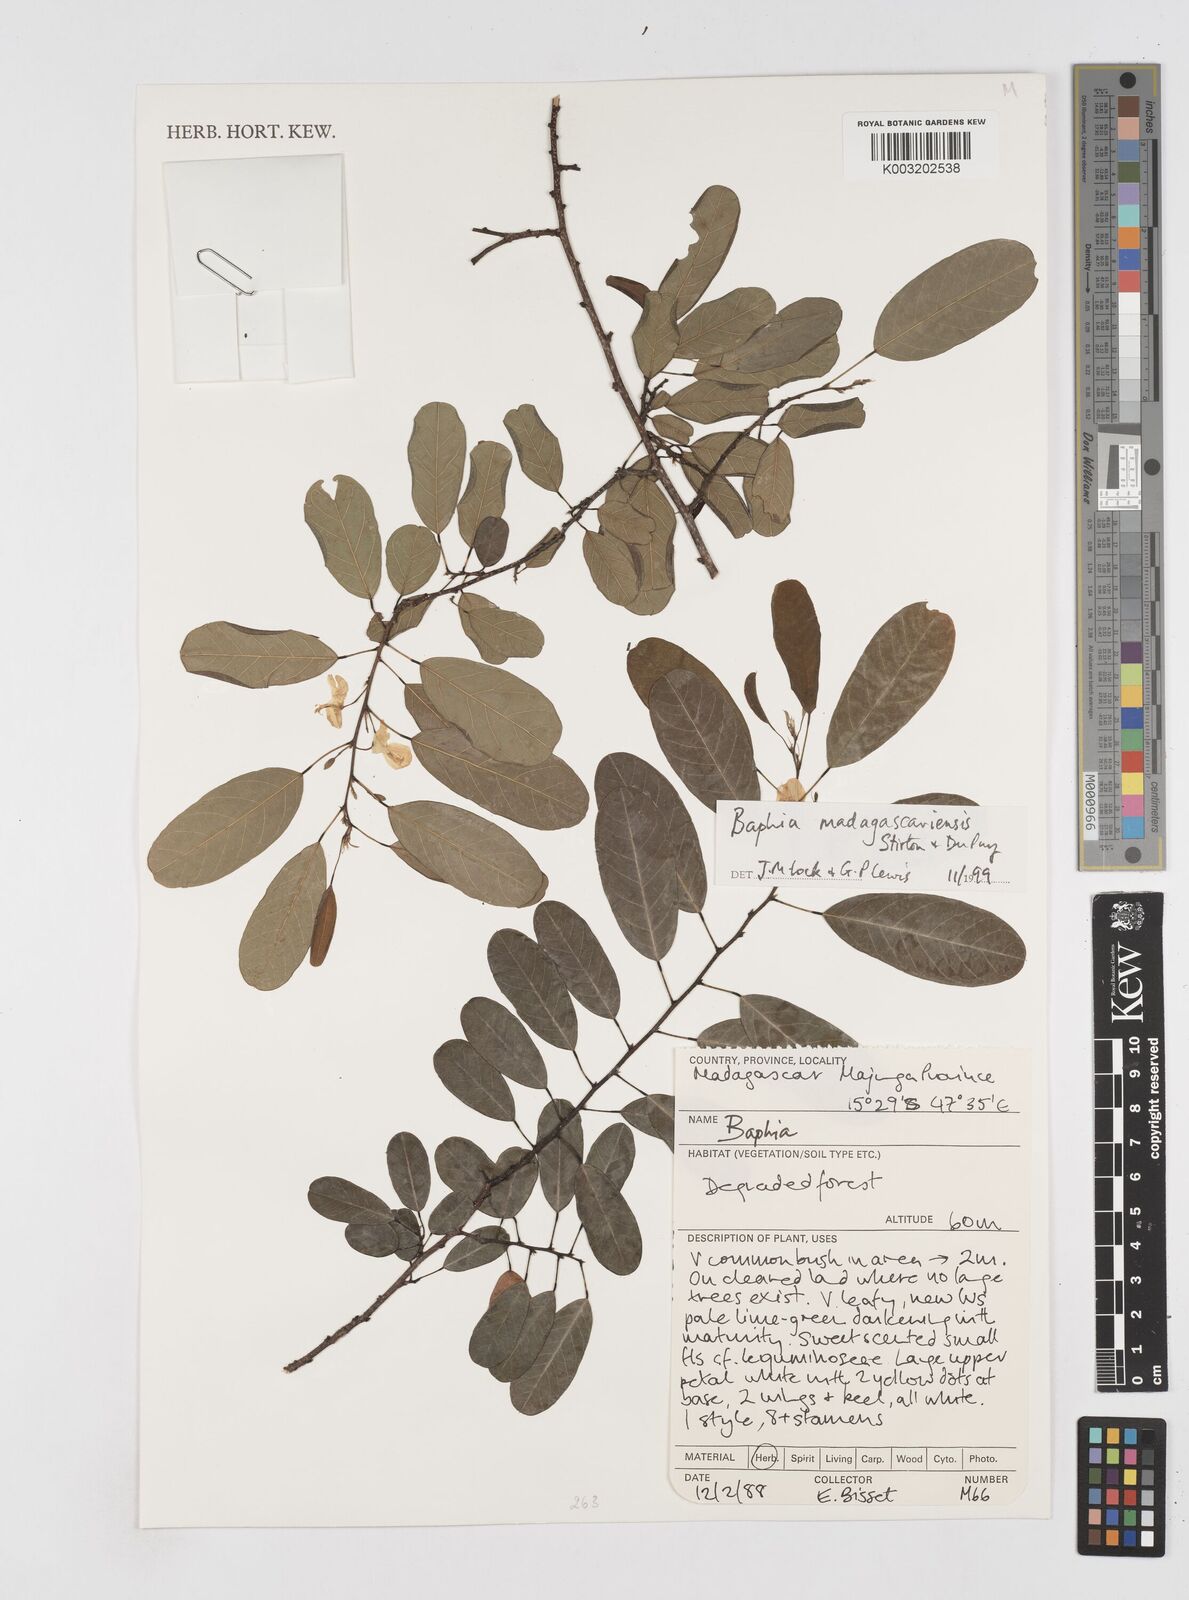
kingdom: Plantae
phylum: Tracheophyta
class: Magnoliopsida
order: Fabales
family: Fabaceae
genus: Baphia
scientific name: Baphia madagascariensis
